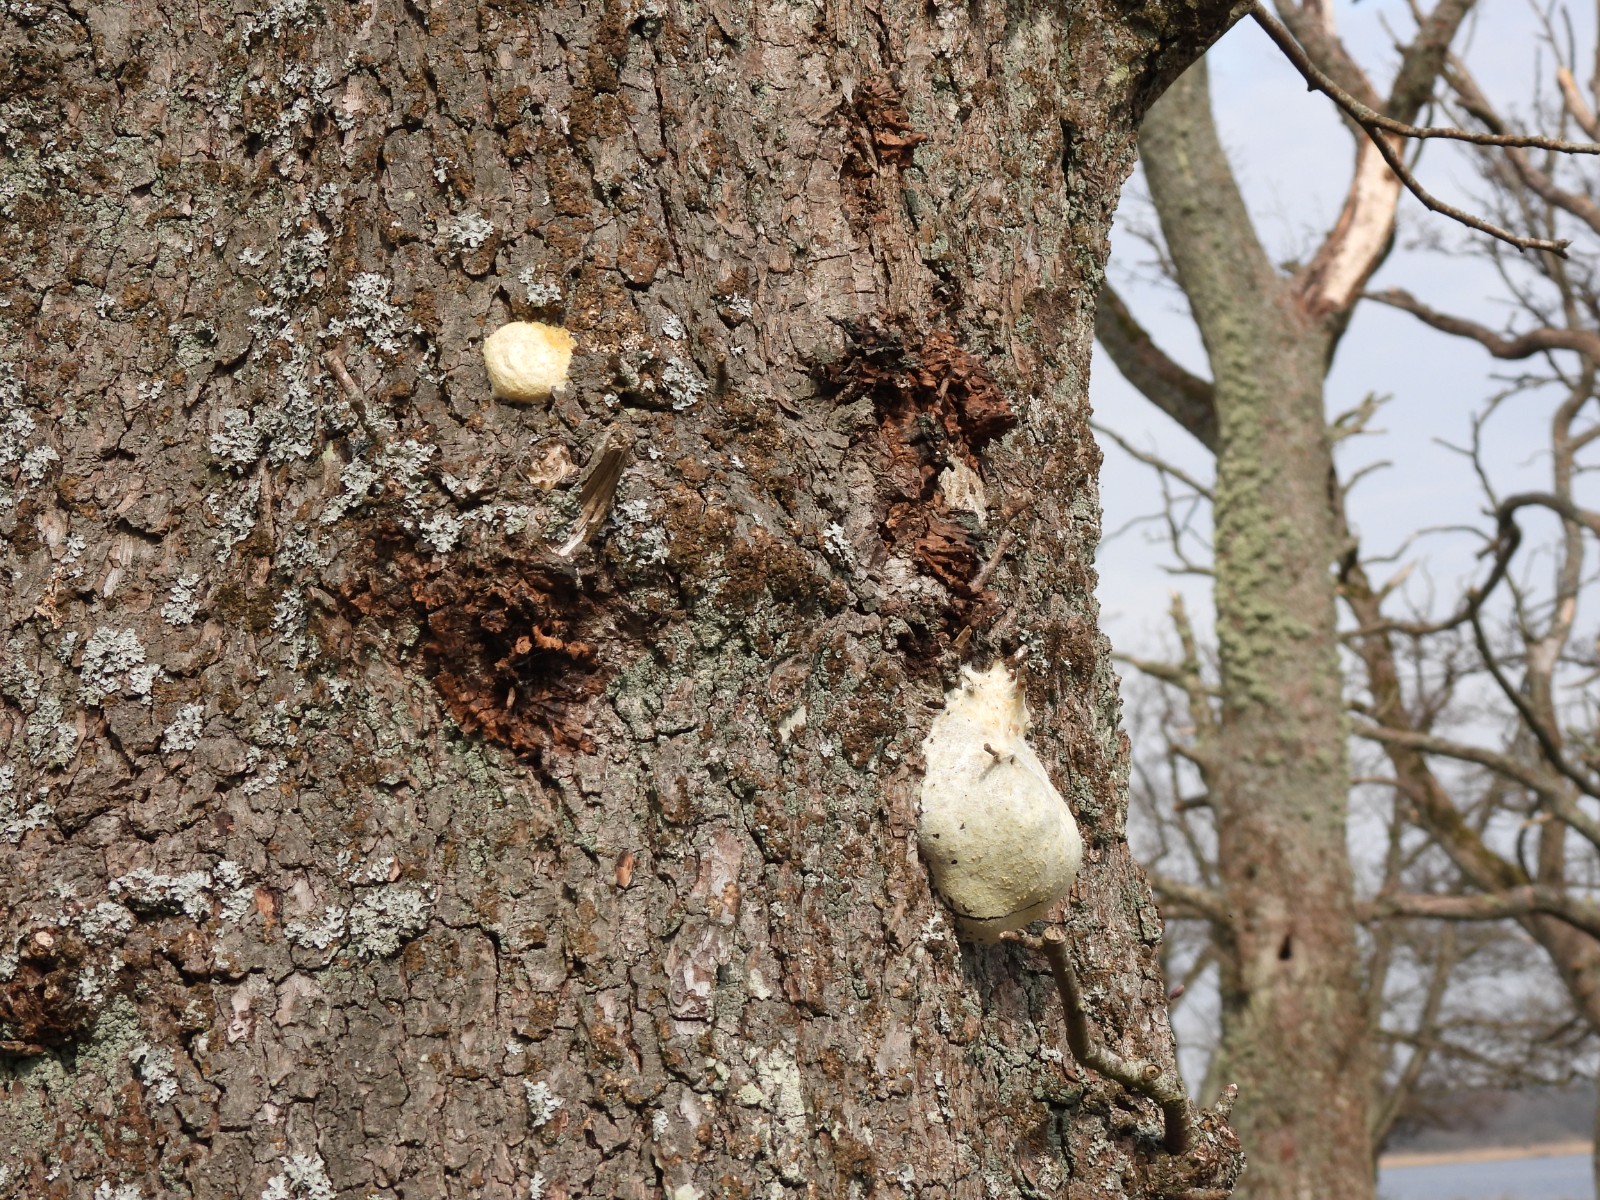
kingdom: Protozoa
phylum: Mycetozoa
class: Myxomycetes
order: Cribrariales
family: Tubiferaceae
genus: Reticularia
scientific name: Reticularia lycoperdon
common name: skinnende støvpude
